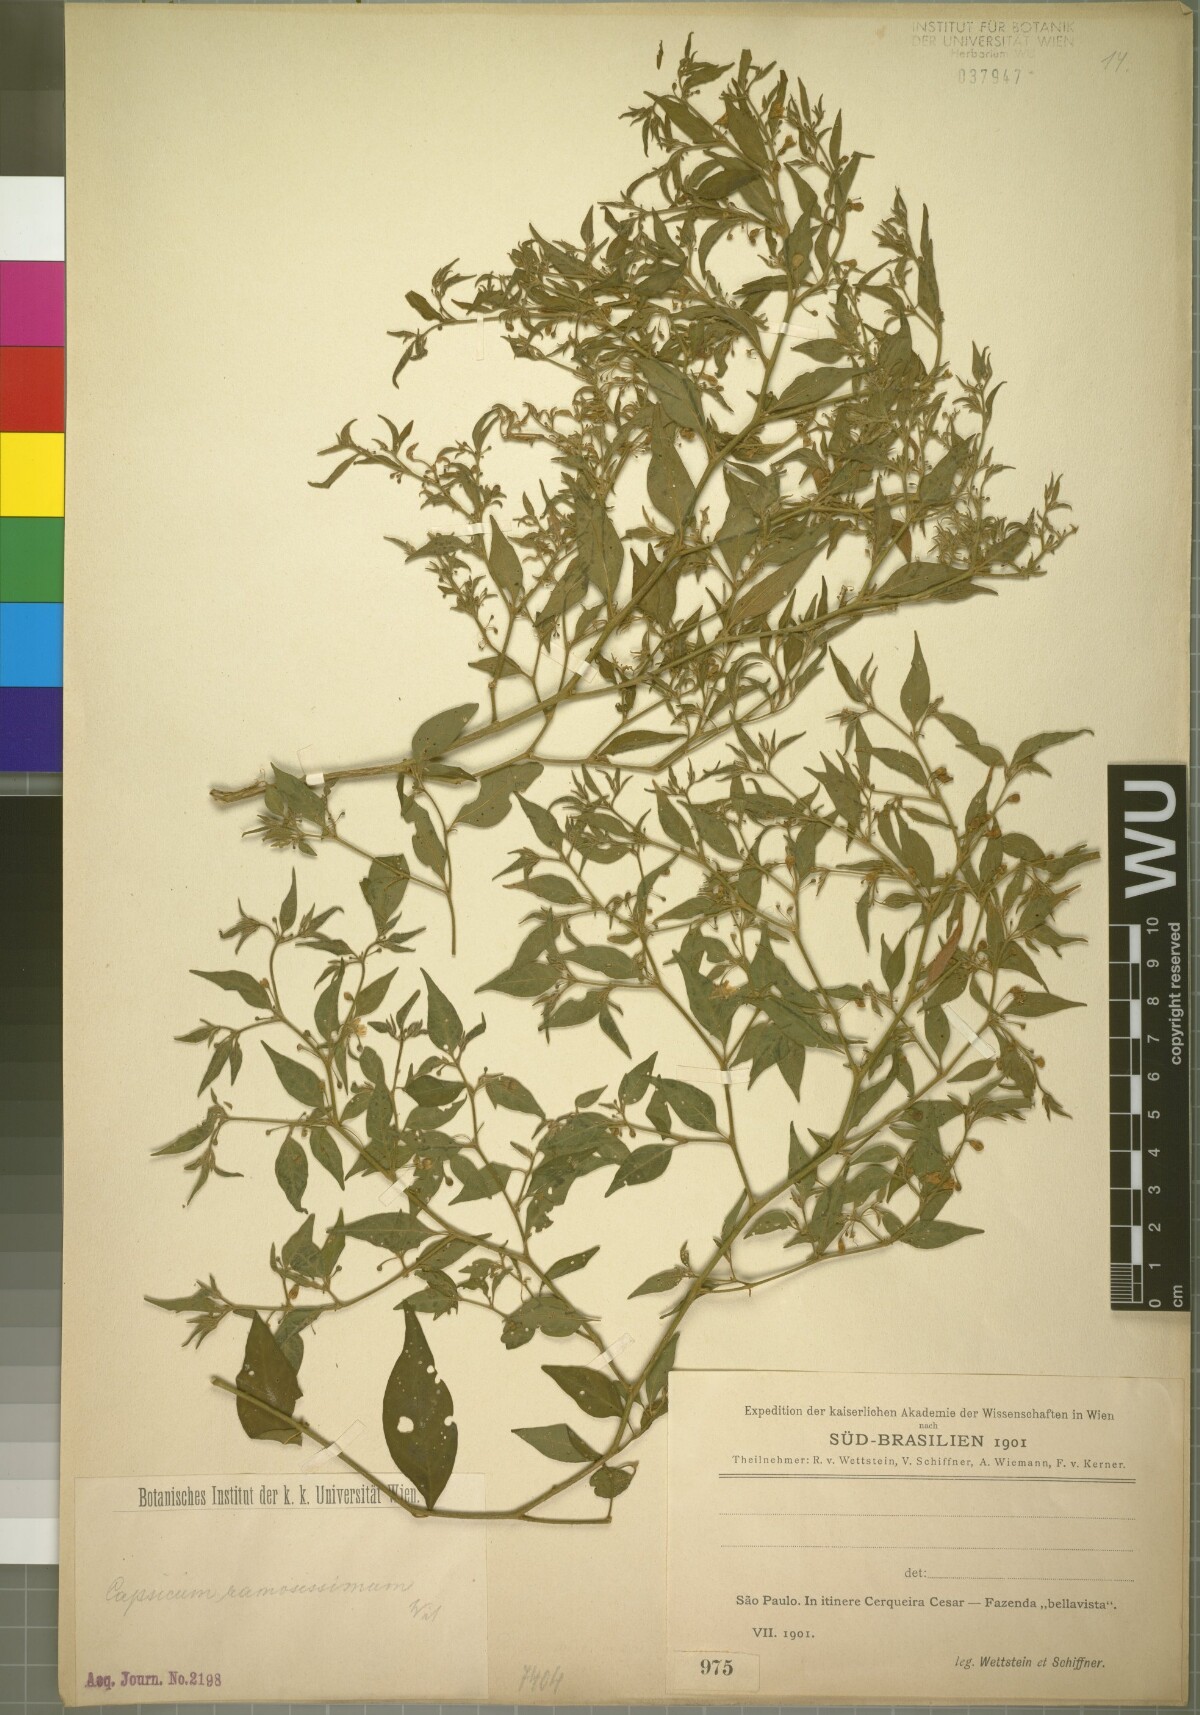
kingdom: Plantae
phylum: Tracheophyta
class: Magnoliopsida
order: Solanales
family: Solanaceae
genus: Capsicum
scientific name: Capsicum flexuosum
